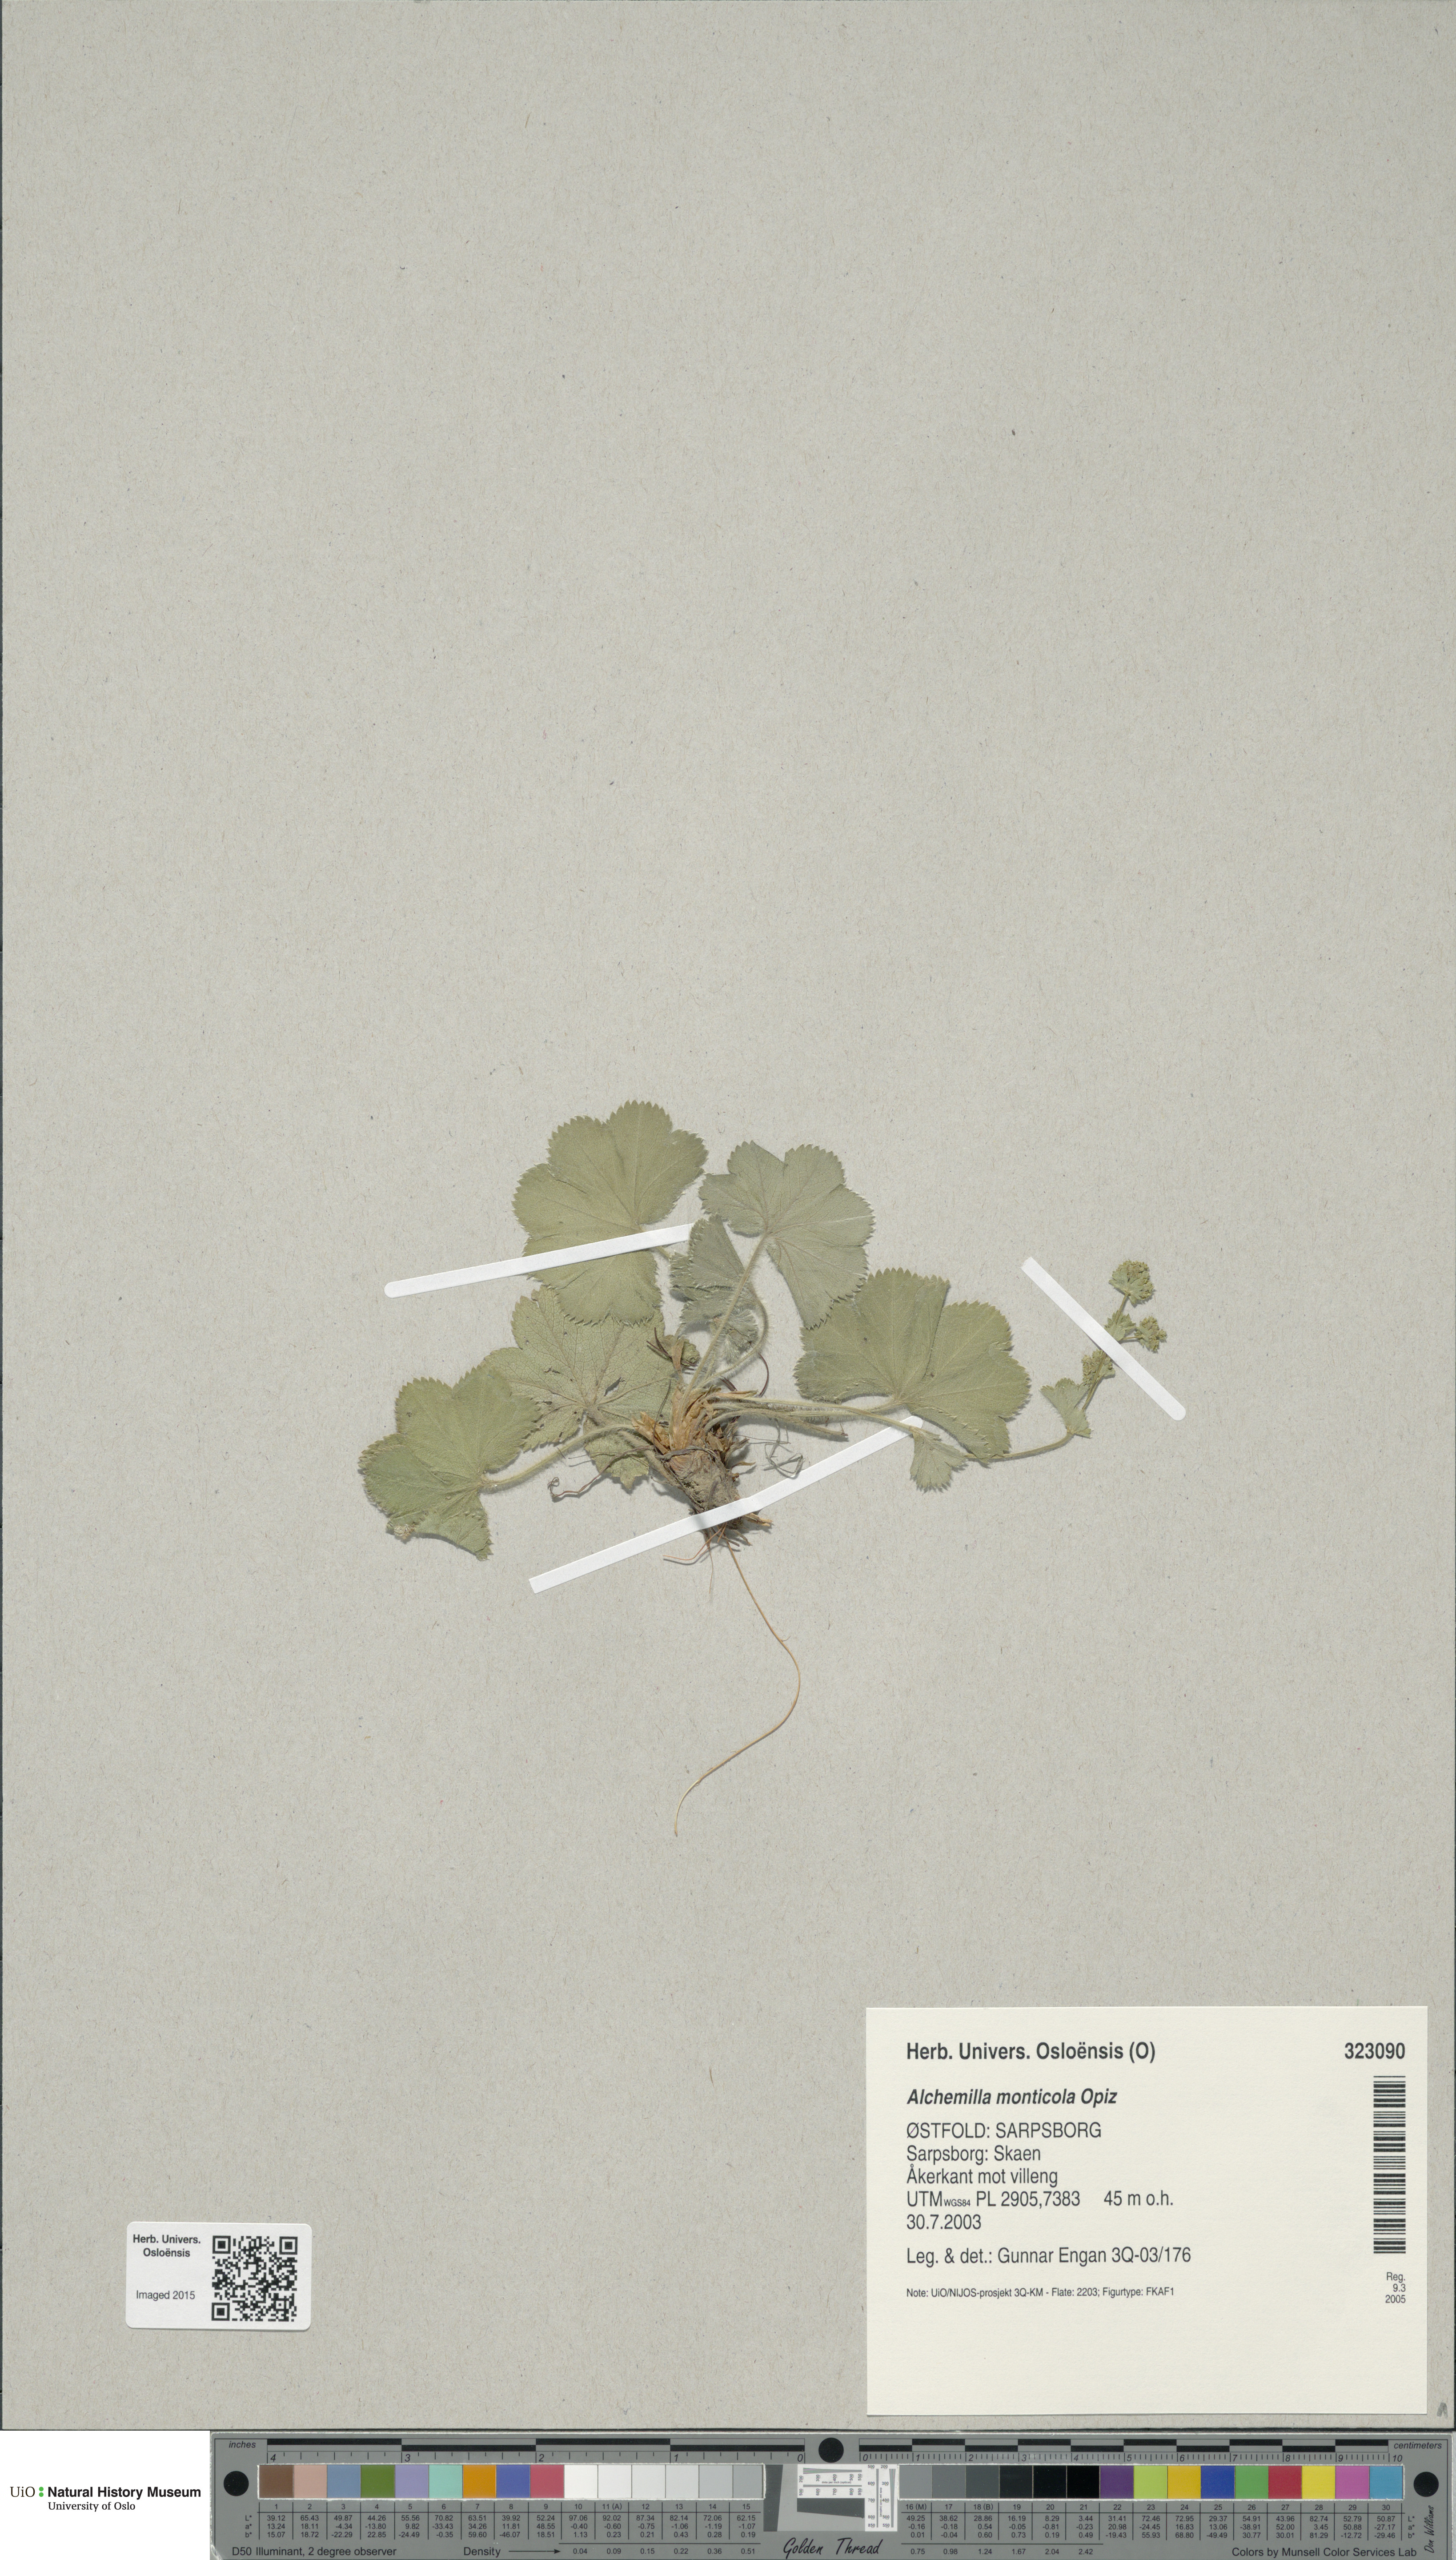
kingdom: Plantae
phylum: Tracheophyta
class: Magnoliopsida
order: Rosales
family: Rosaceae
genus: Alchemilla
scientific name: Alchemilla monticola
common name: Hairy lady's mantle
